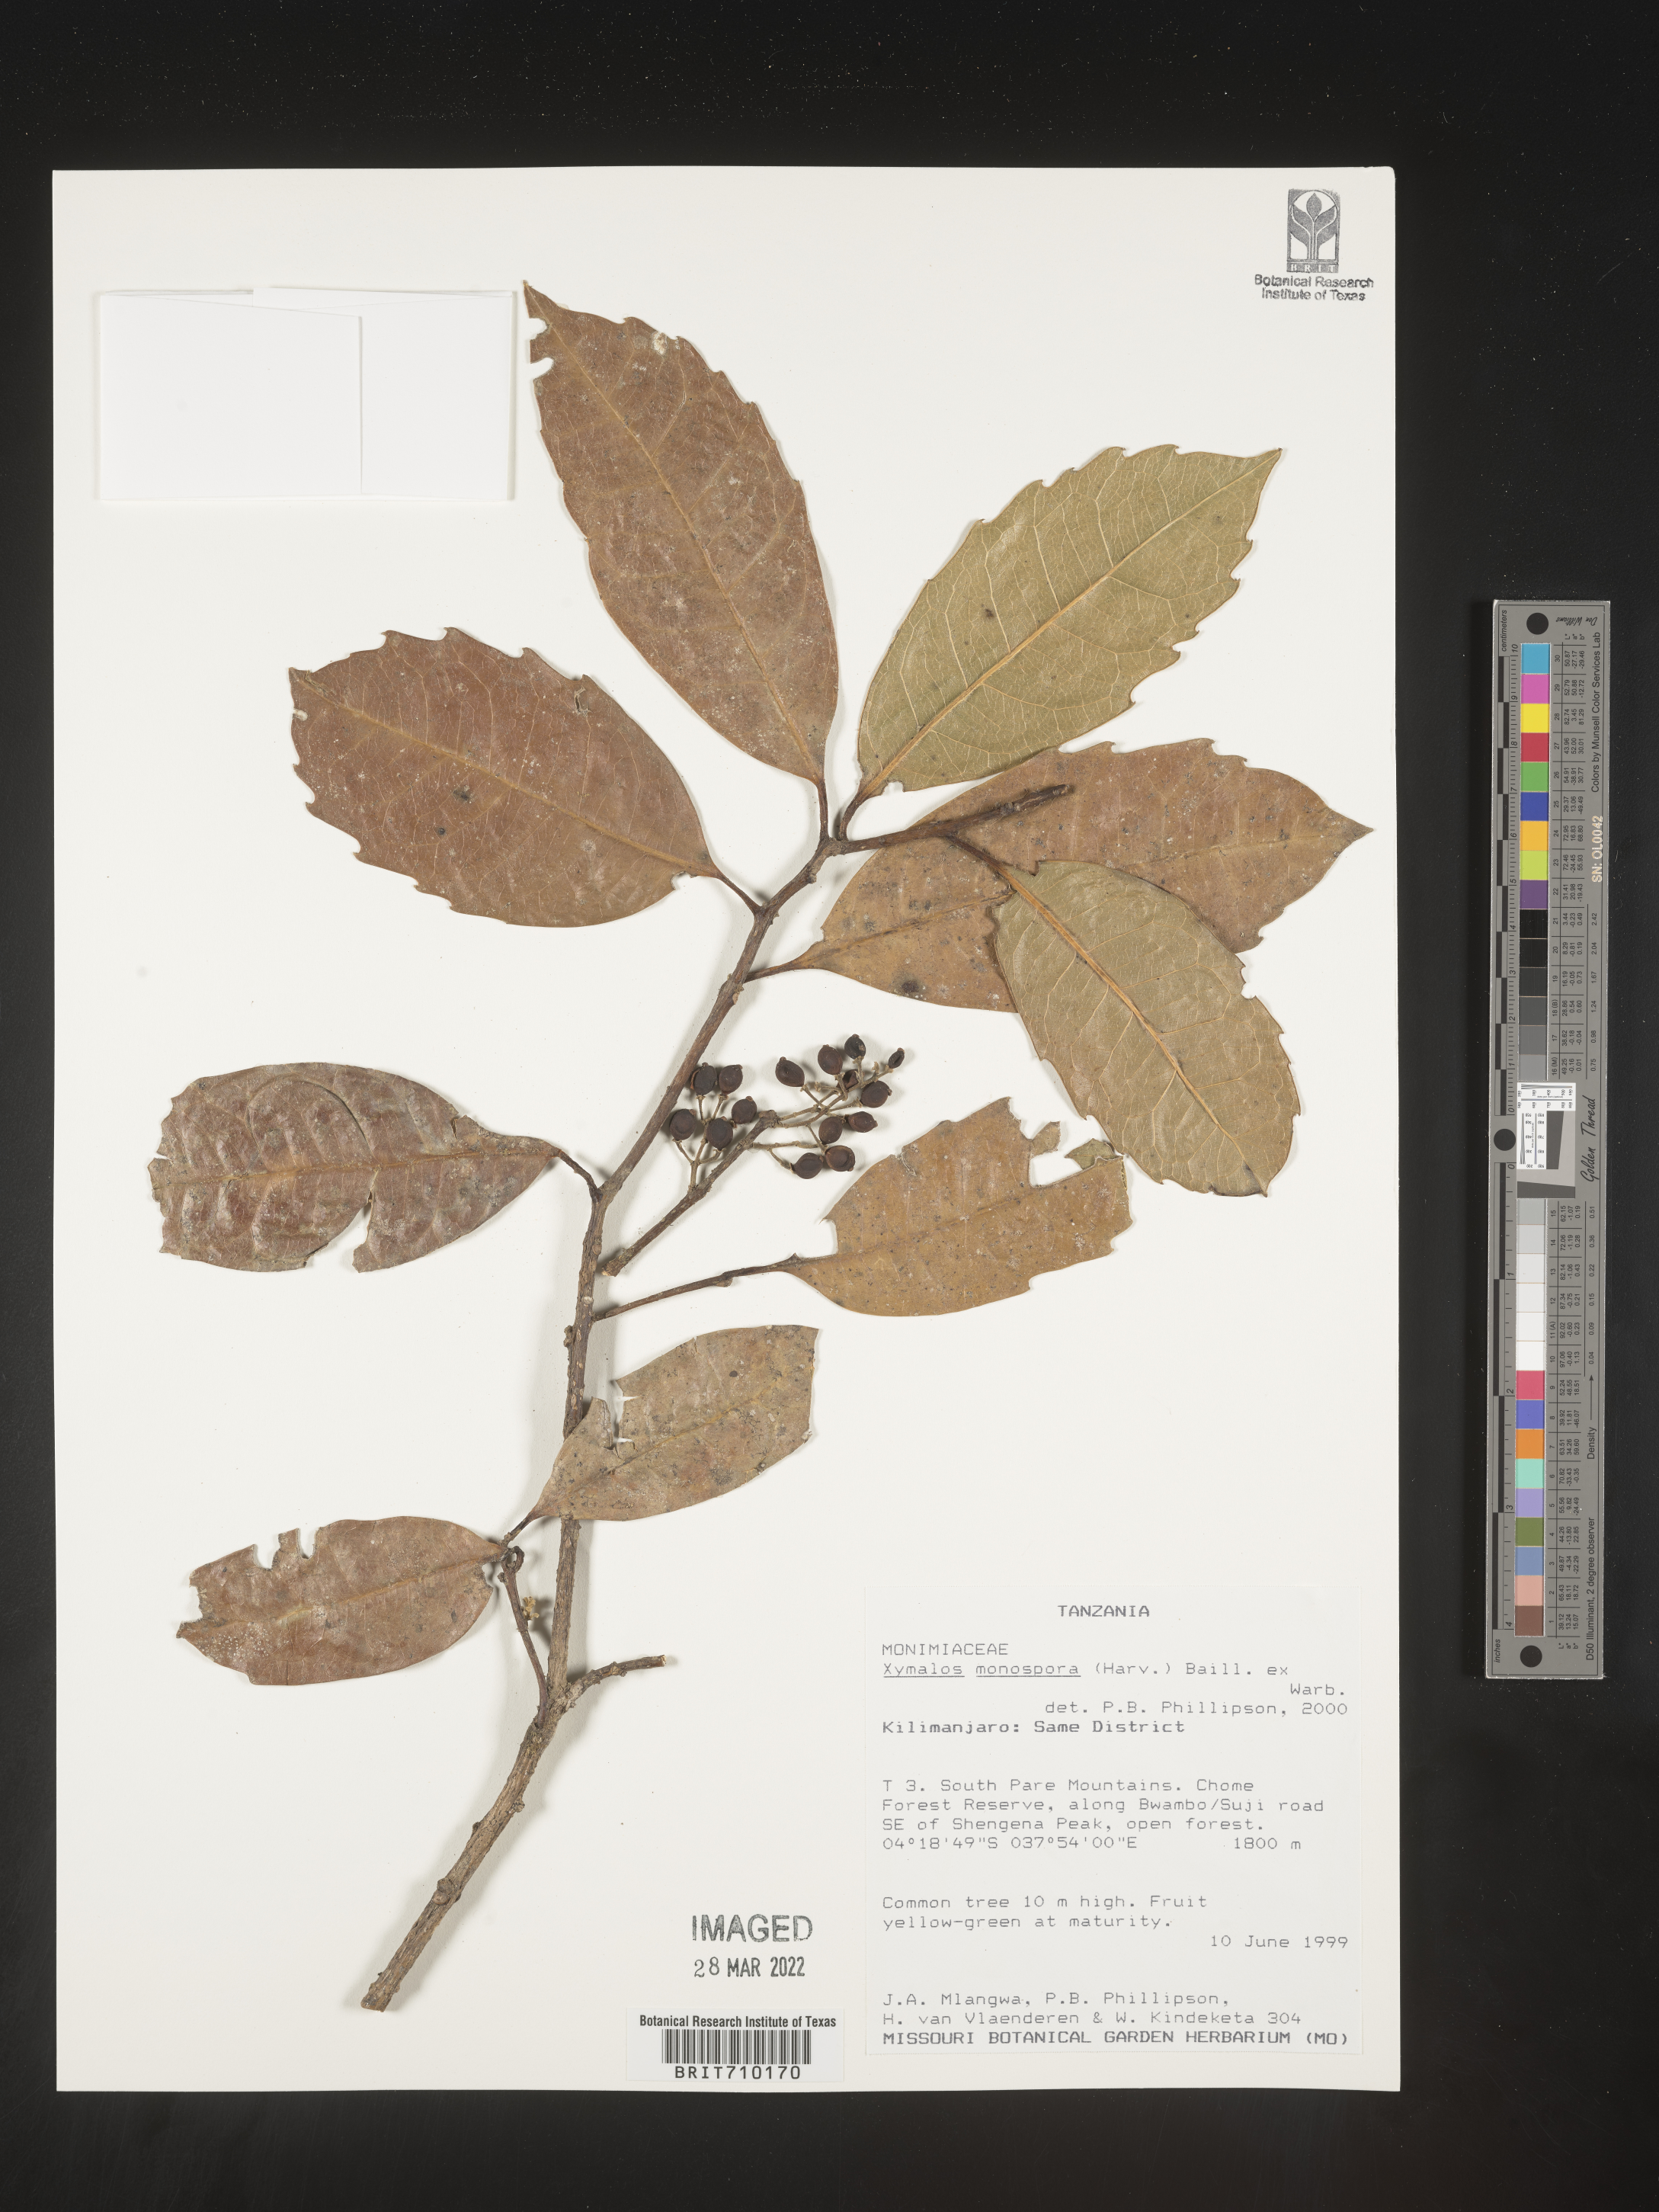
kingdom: Plantae
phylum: Tracheophyta
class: Magnoliopsida
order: Laurales
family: Monimiaceae
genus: Xymalos
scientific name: Xymalos
